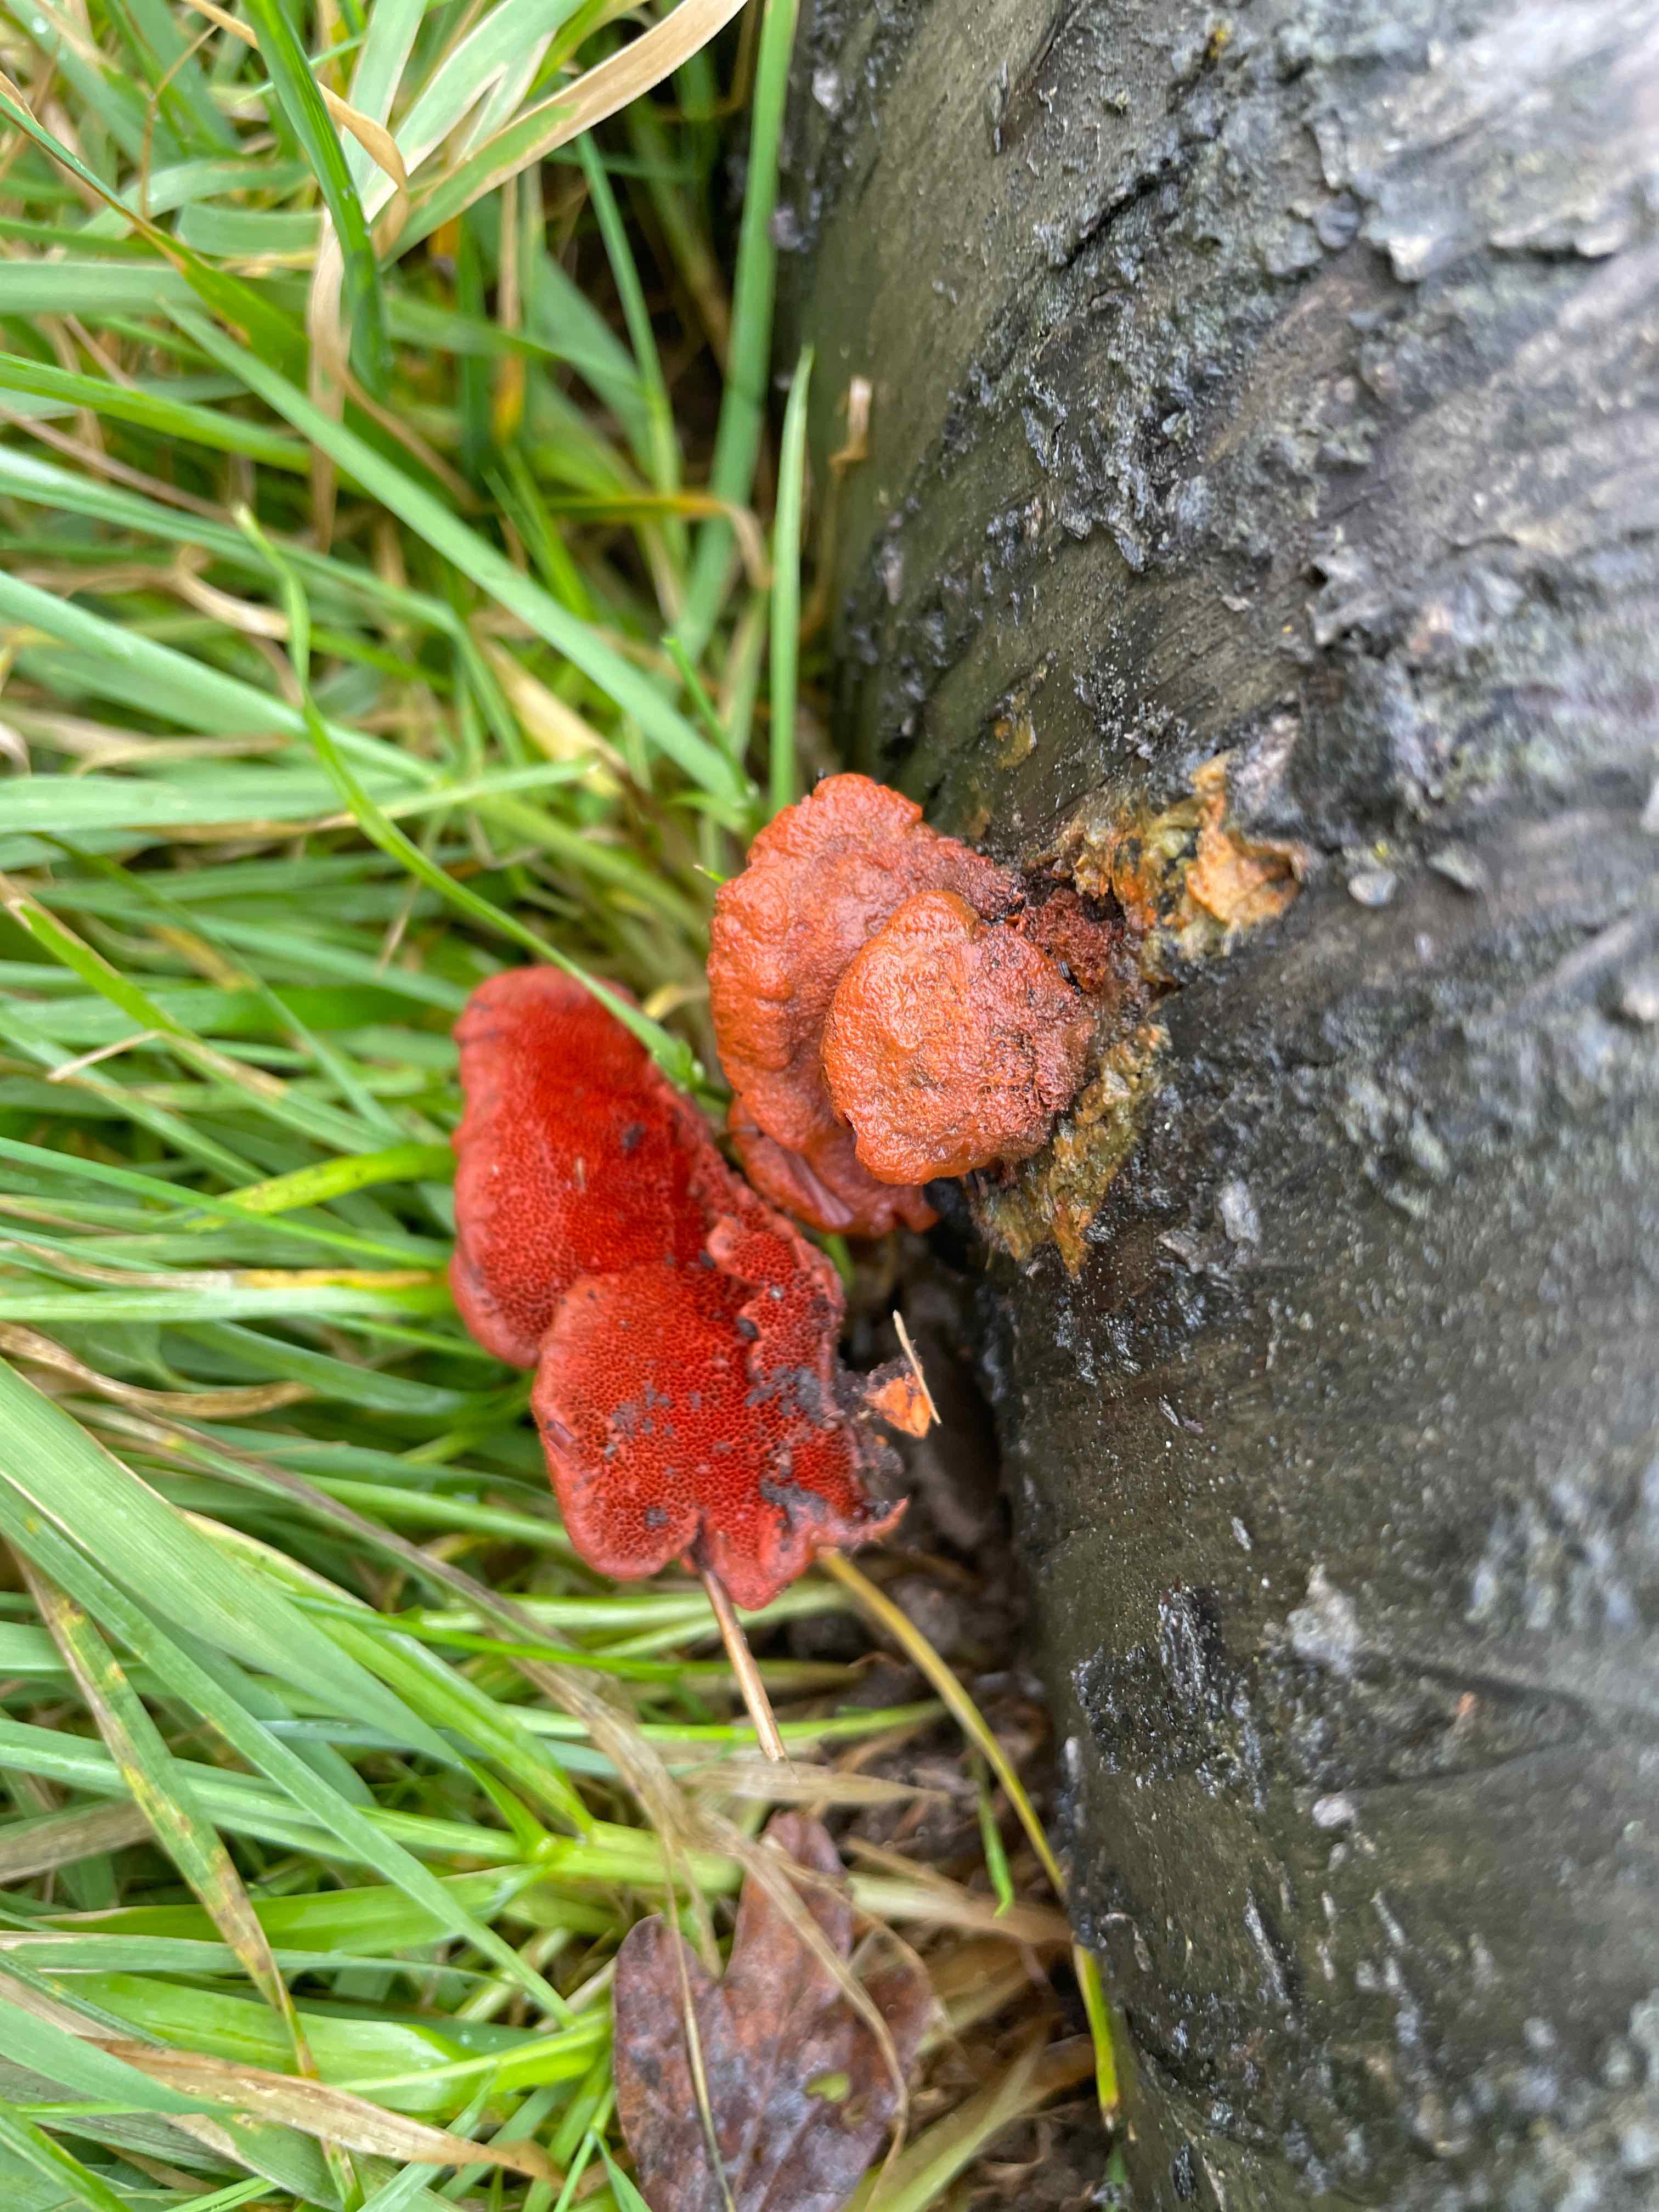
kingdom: Fungi
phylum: Basidiomycota
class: Agaricomycetes
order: Polyporales
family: Polyporaceae
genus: Trametes
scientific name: Trametes cinnabarina
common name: cinnoberporesvamp
